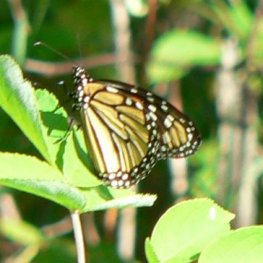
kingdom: Animalia
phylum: Arthropoda
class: Insecta
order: Lepidoptera
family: Nymphalidae
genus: Danaus
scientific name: Danaus plexippus
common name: Monarch
